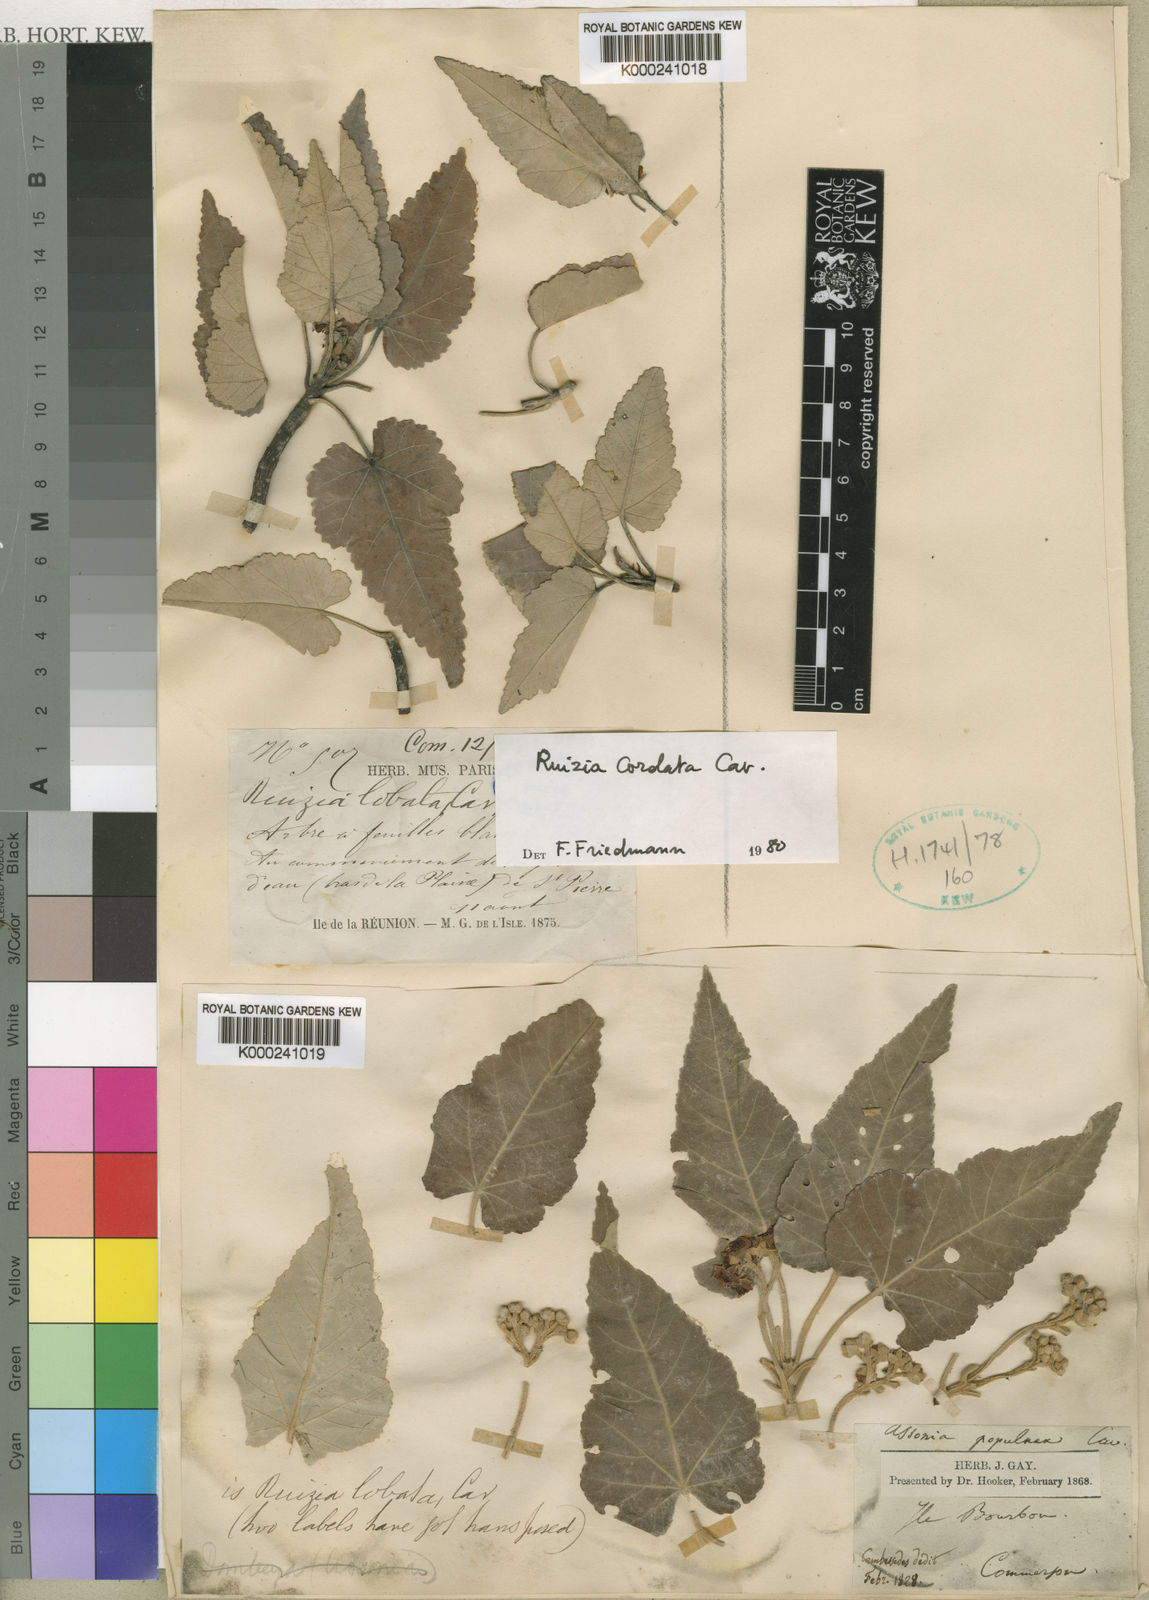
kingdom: Plantae
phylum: Tracheophyta
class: Magnoliopsida
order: Malvales
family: Malvaceae
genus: Ruizia
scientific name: Ruizia cordata
